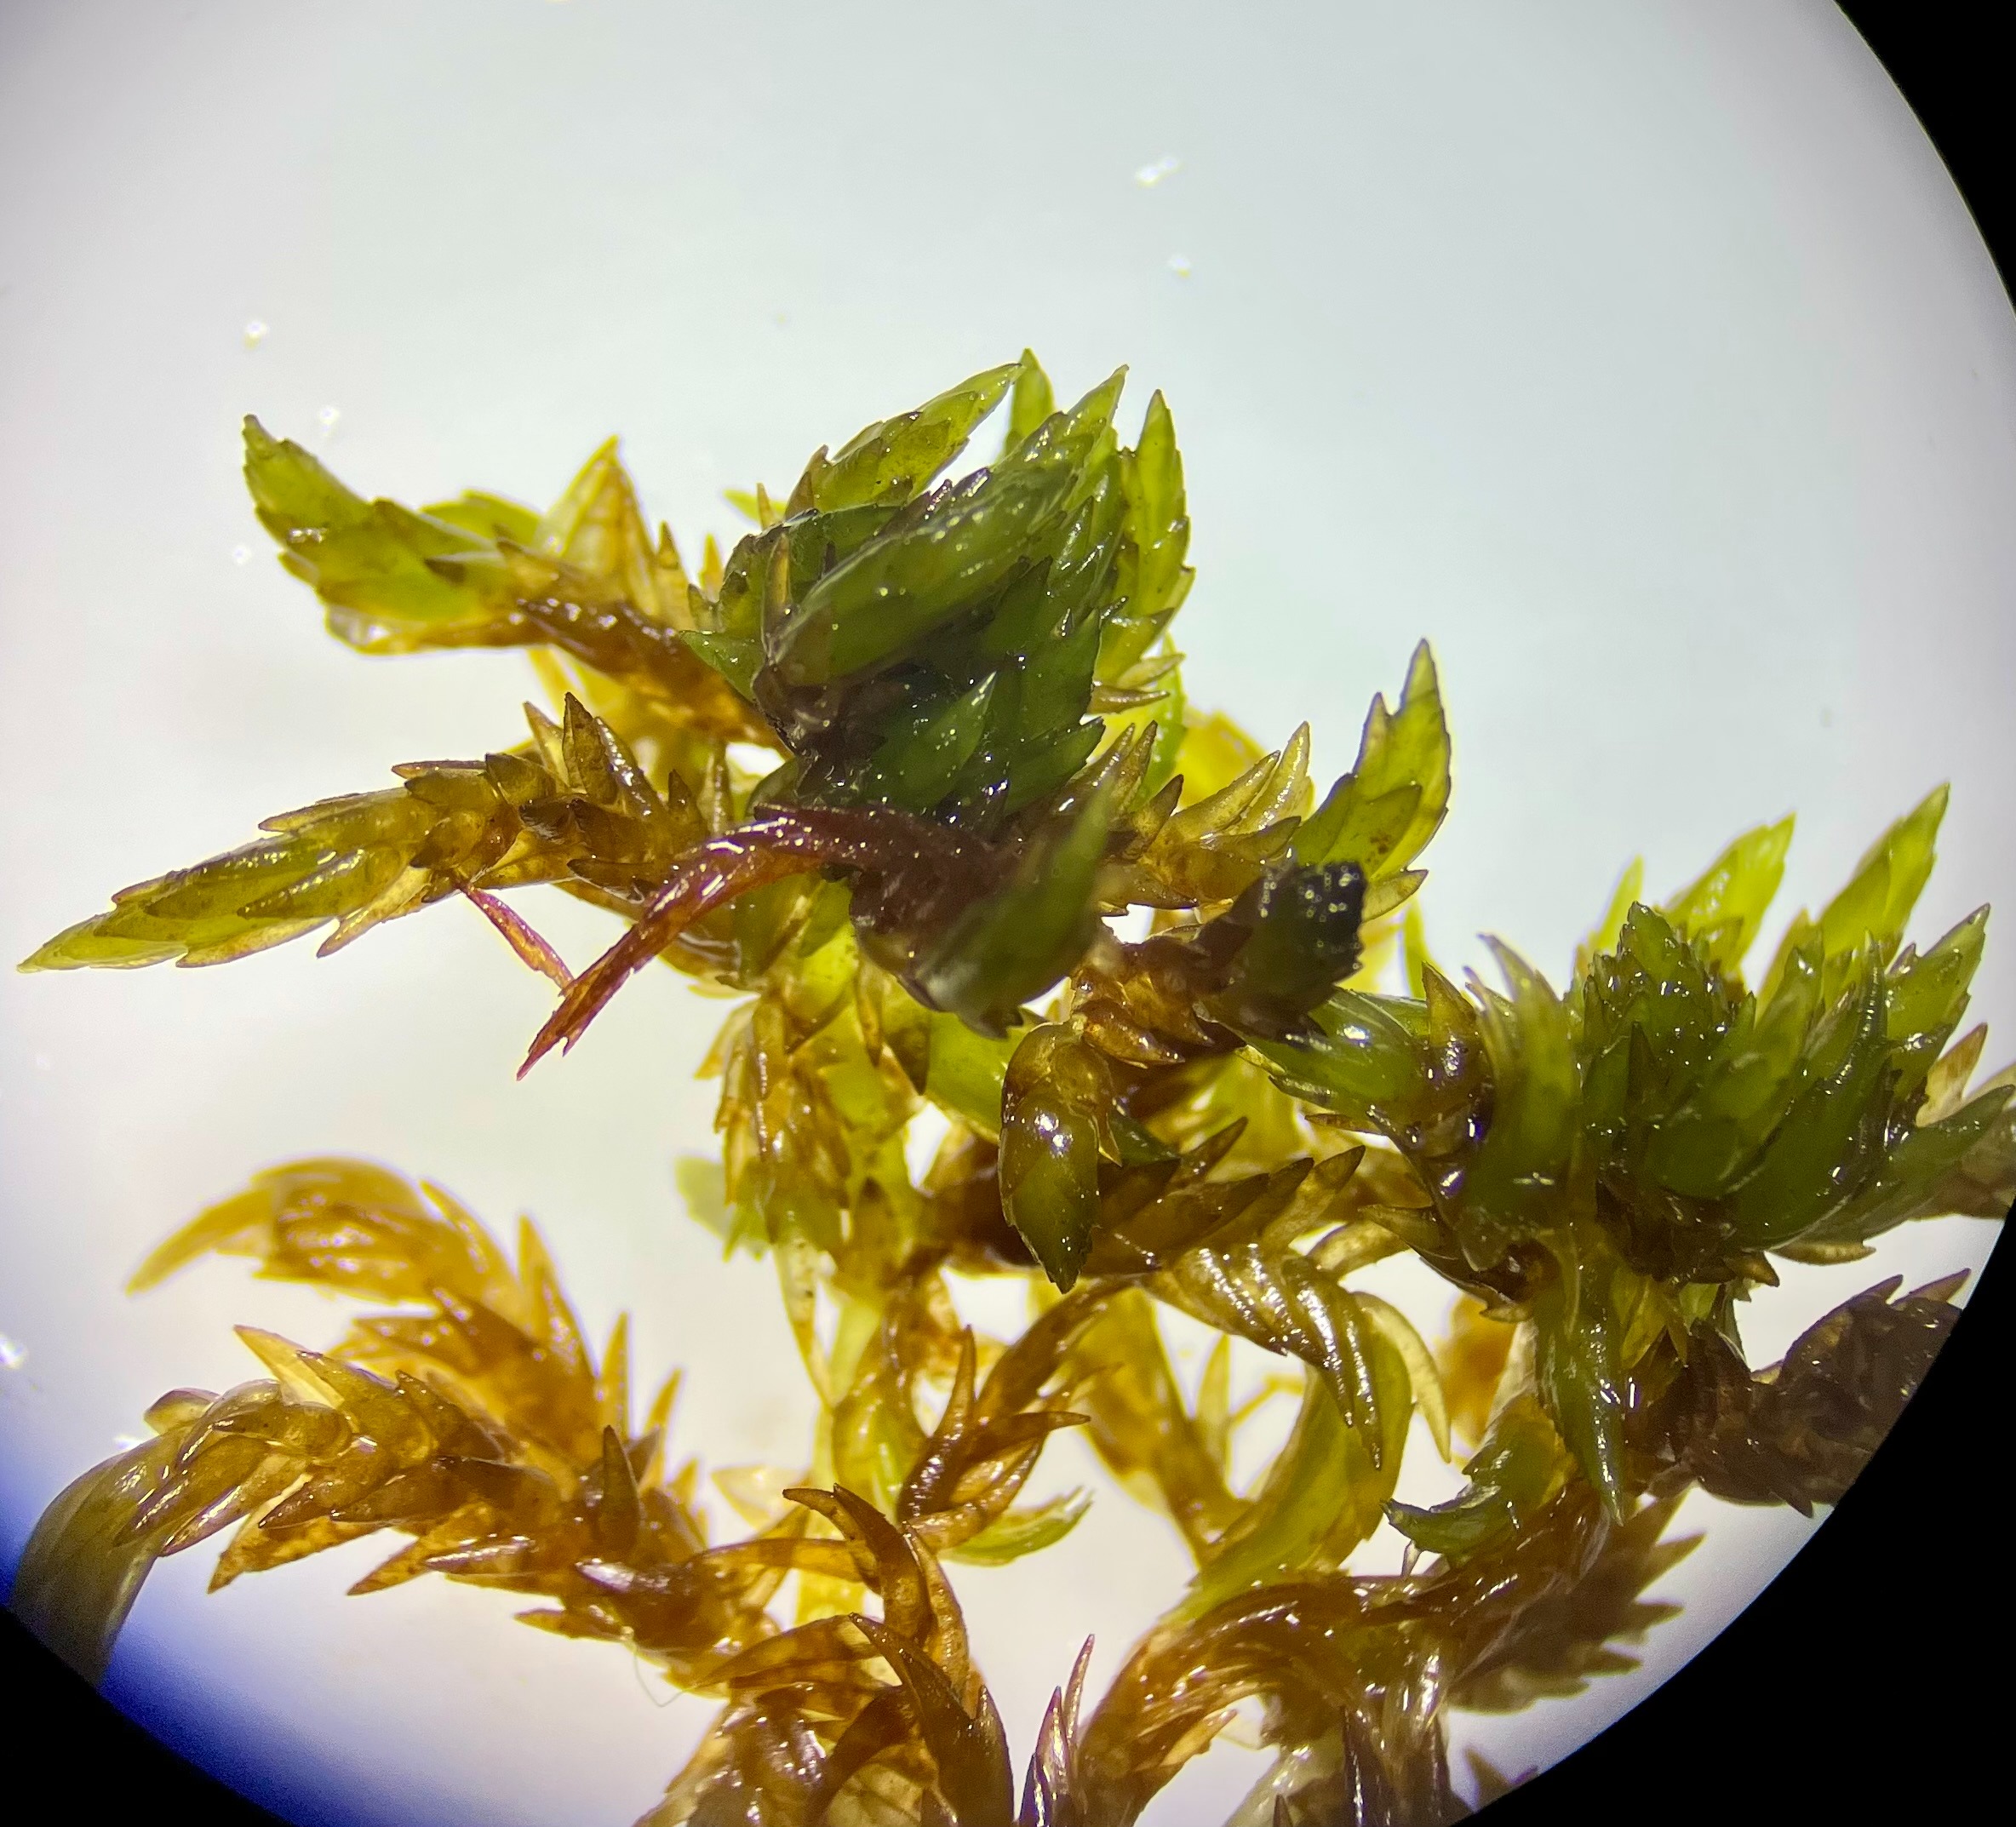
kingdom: Plantae
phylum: Bryophyta
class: Sphagnopsida
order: Sphagnales
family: Sphagnaceae
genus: Sphagnum
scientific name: Sphagnum denticulatum
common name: Rødbrun tørvemos
